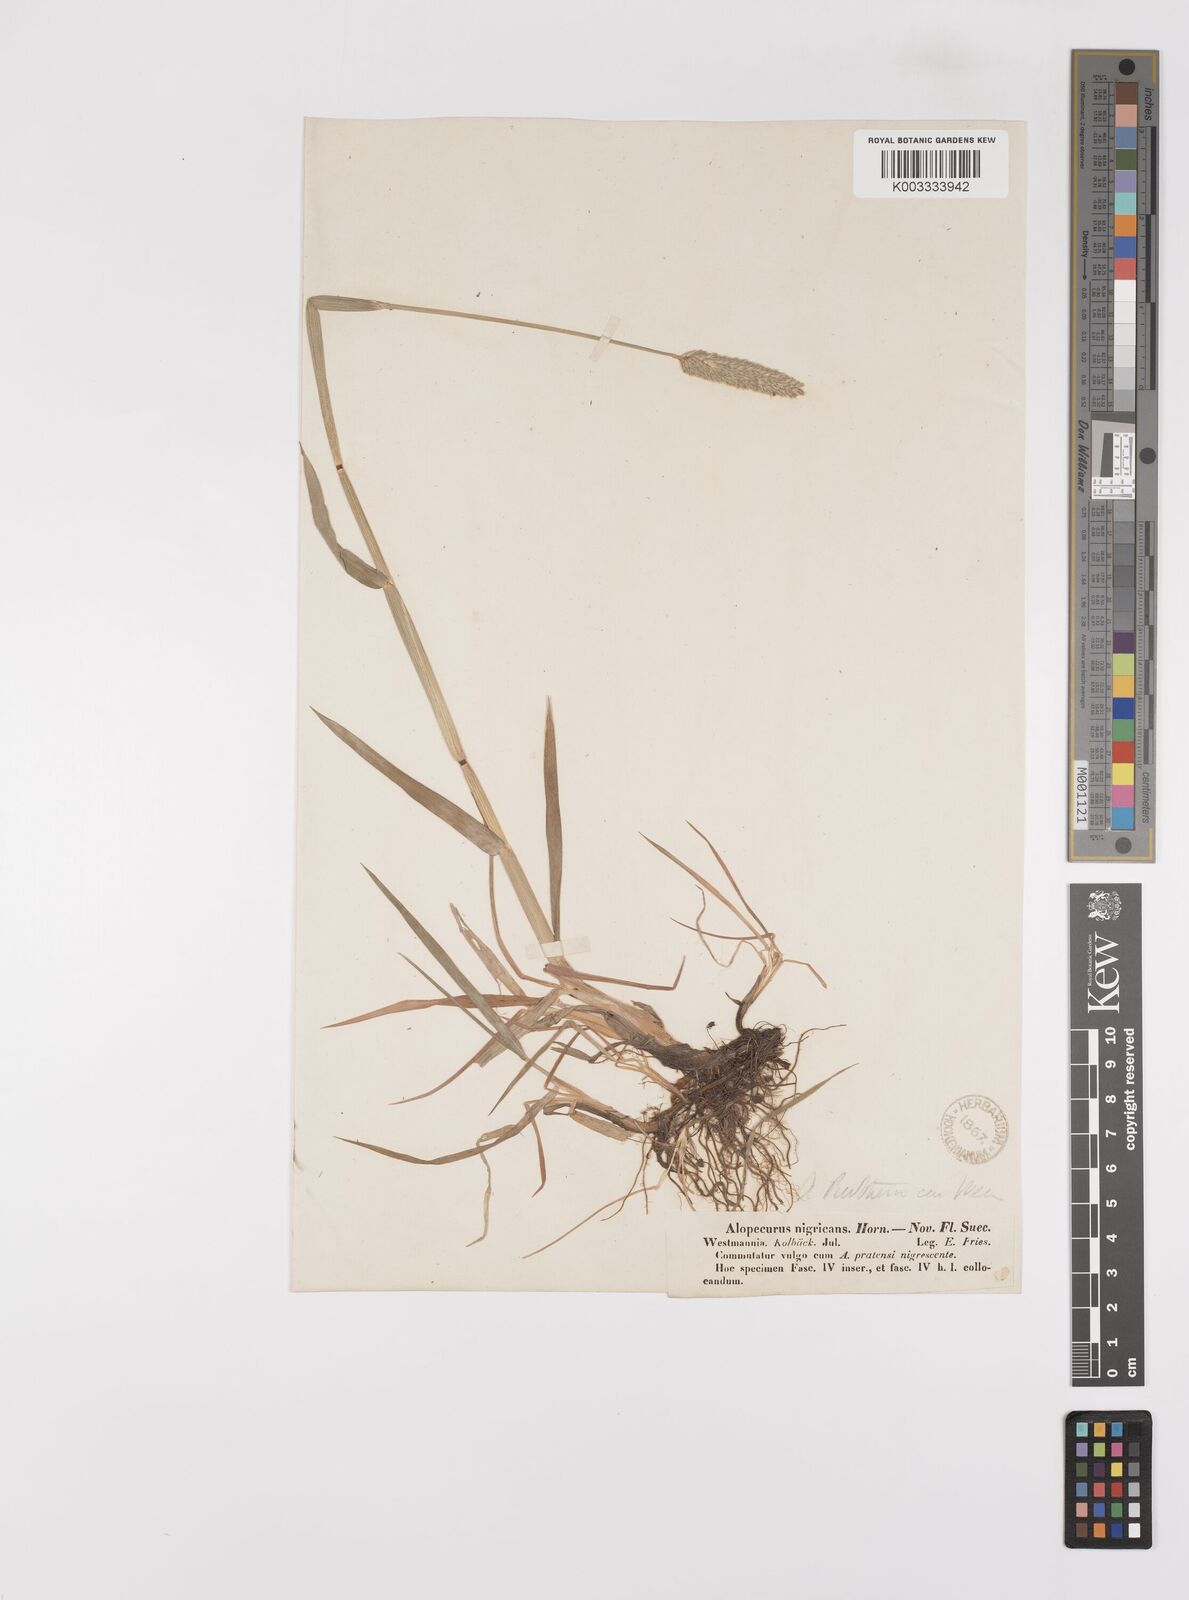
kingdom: Plantae
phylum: Tracheophyta
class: Liliopsida
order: Poales
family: Poaceae
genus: Alopecurus
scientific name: Alopecurus arundinaceus
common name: Creeping meadow foxtail
